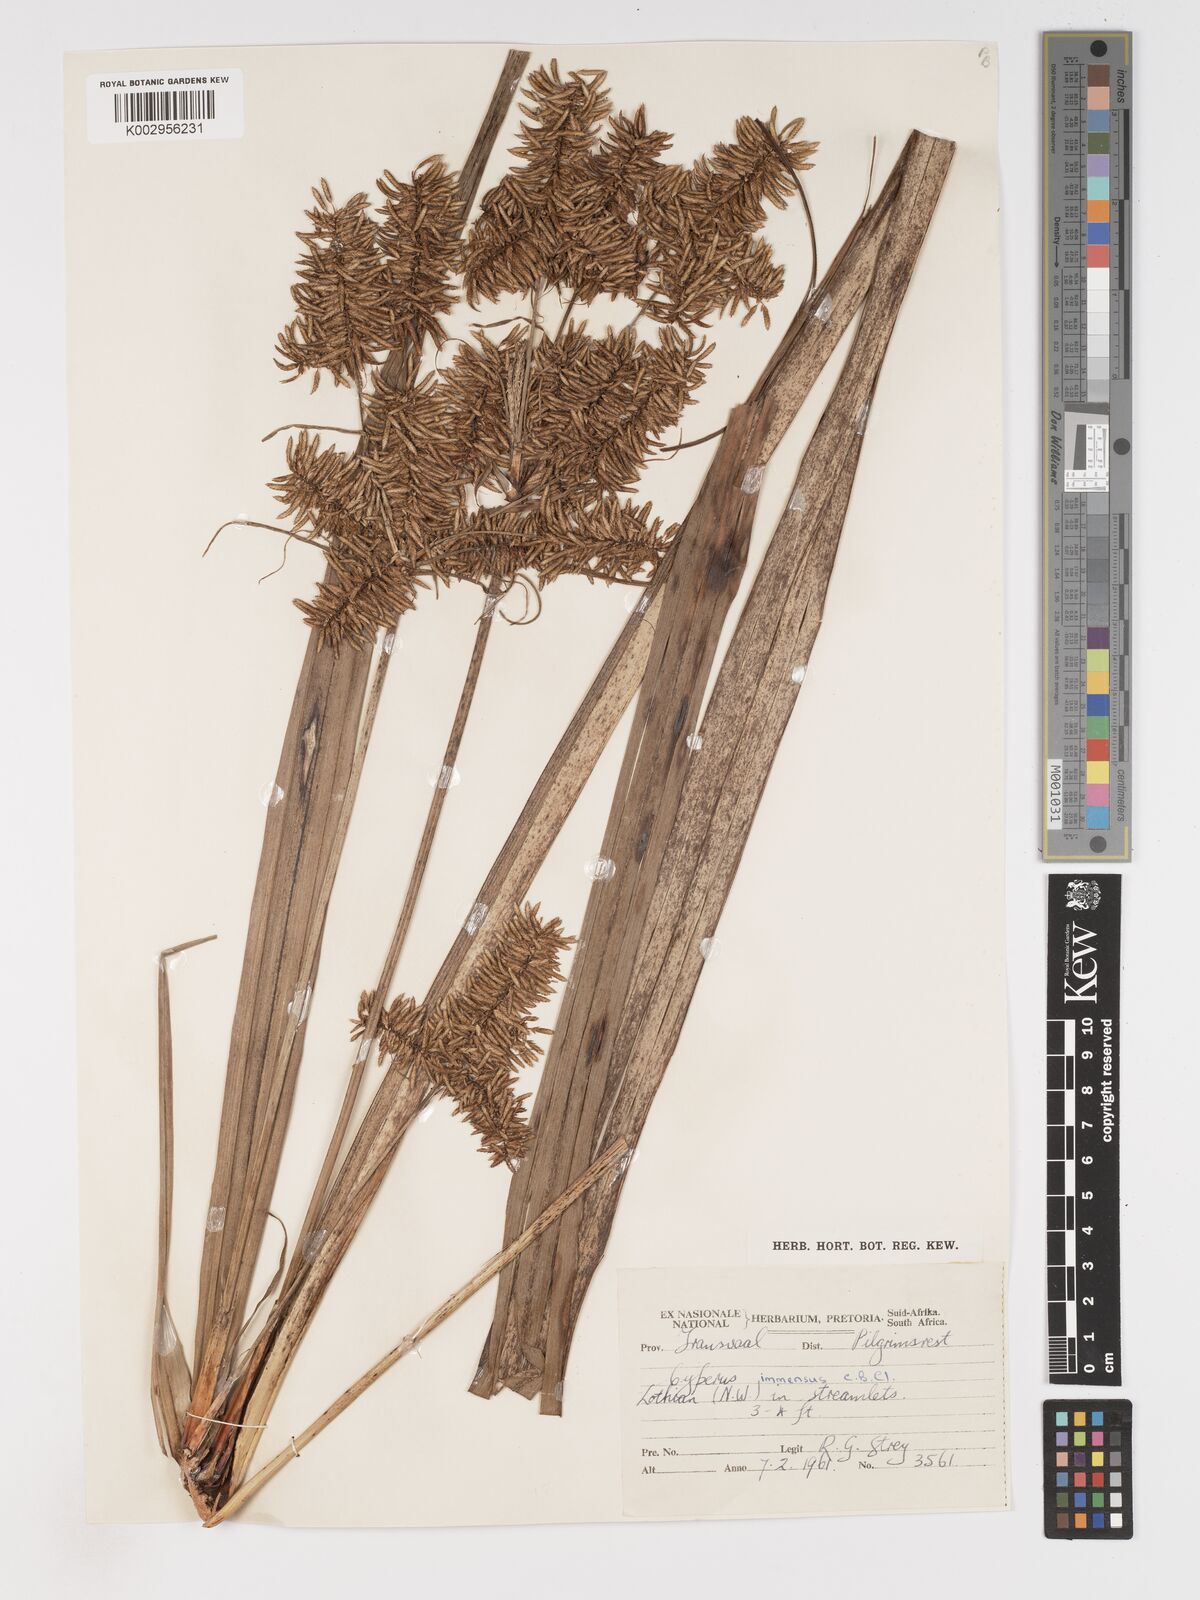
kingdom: Plantae
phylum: Tracheophyta
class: Liliopsida
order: Poales
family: Cyperaceae
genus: Cyperus
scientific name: Cyperus dives
